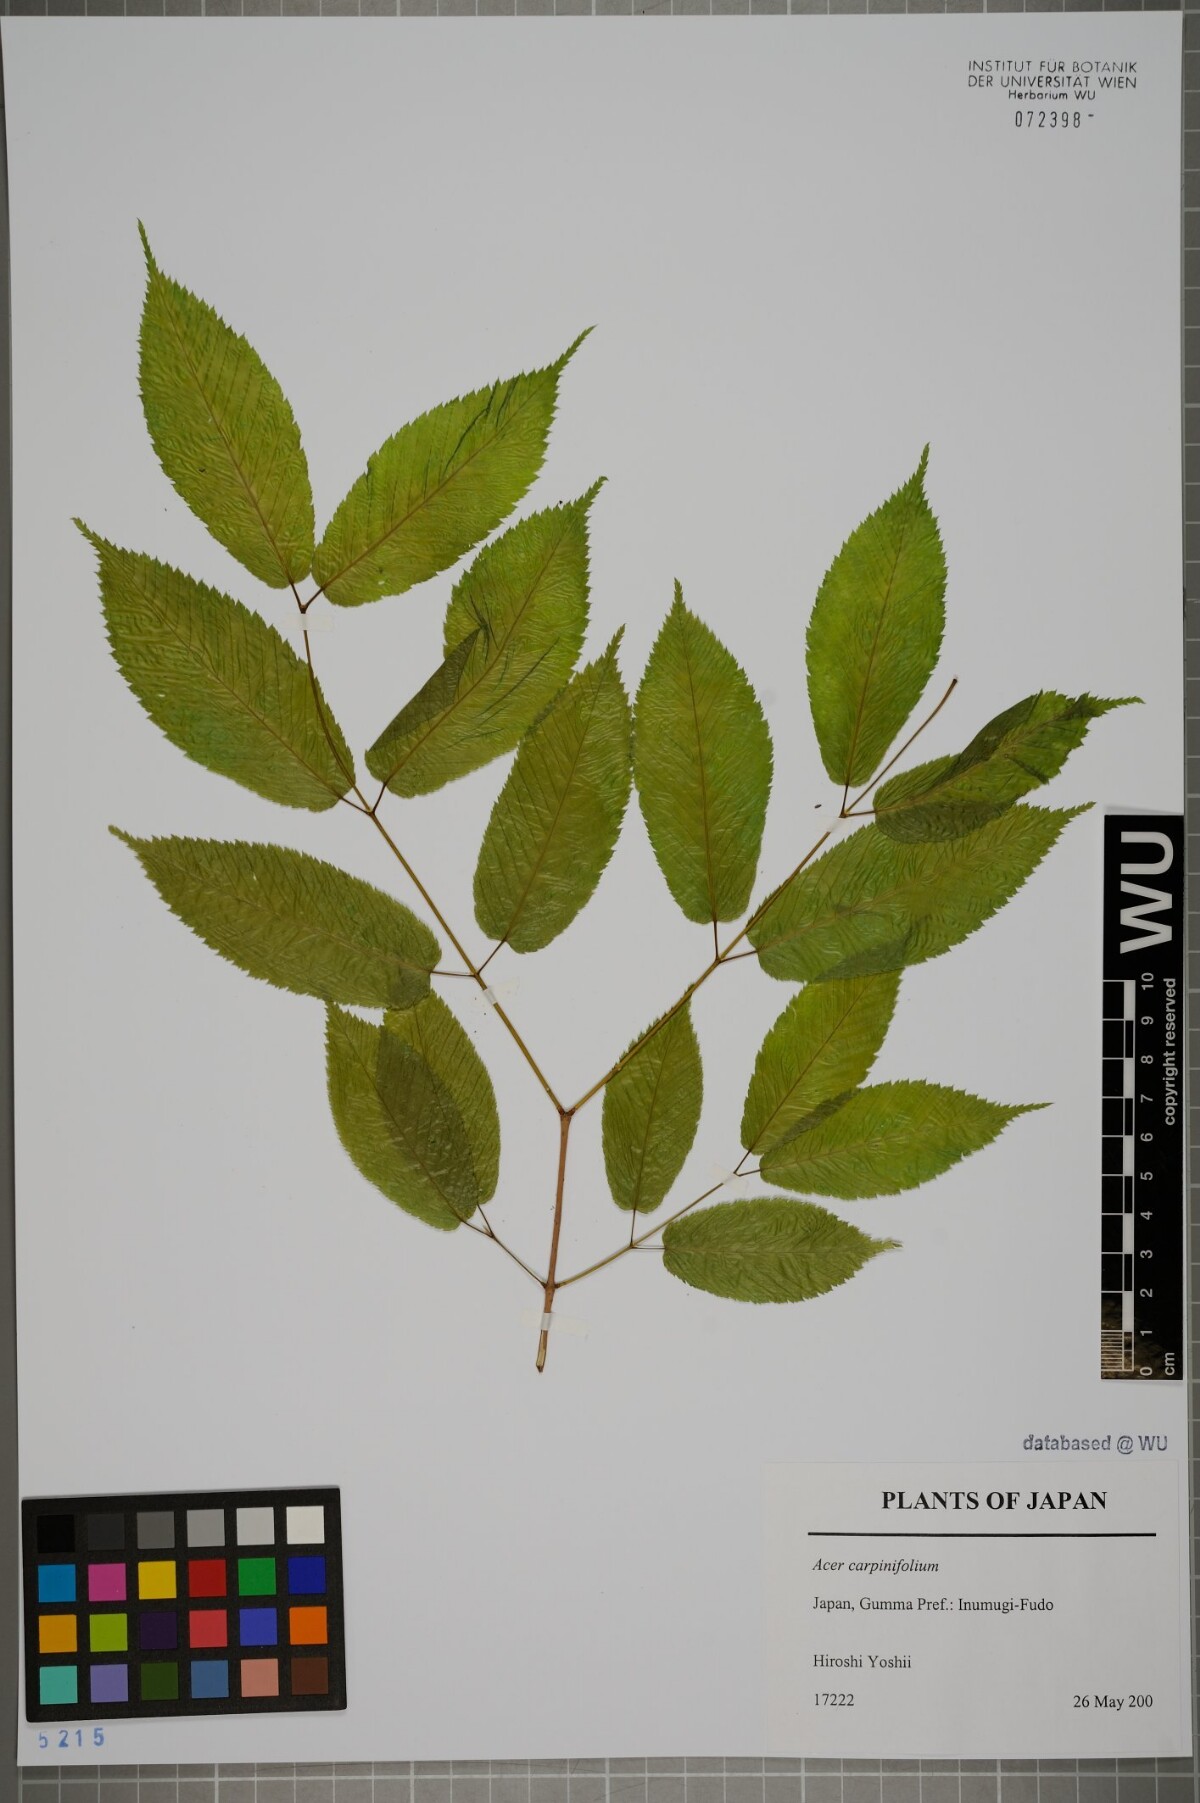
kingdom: Plantae
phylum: Tracheophyta
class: Magnoliopsida
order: Sapindales
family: Sapindaceae
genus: Acer
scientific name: Acer carpinifolium
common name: Hornbeam maple
